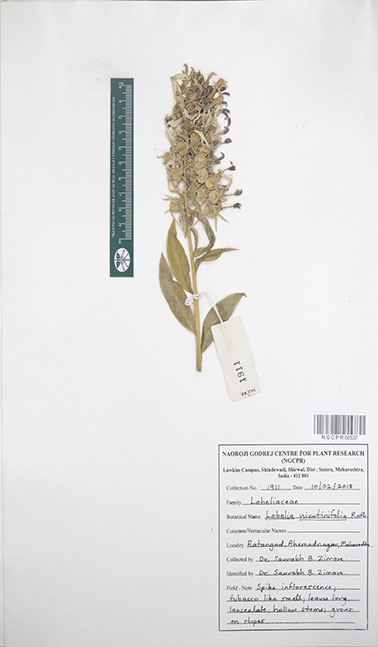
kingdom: Plantae
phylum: Tracheophyta
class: Magnoliopsida
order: Asterales
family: Campanulaceae
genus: Lobelia
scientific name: Lobelia nicotianifolia
